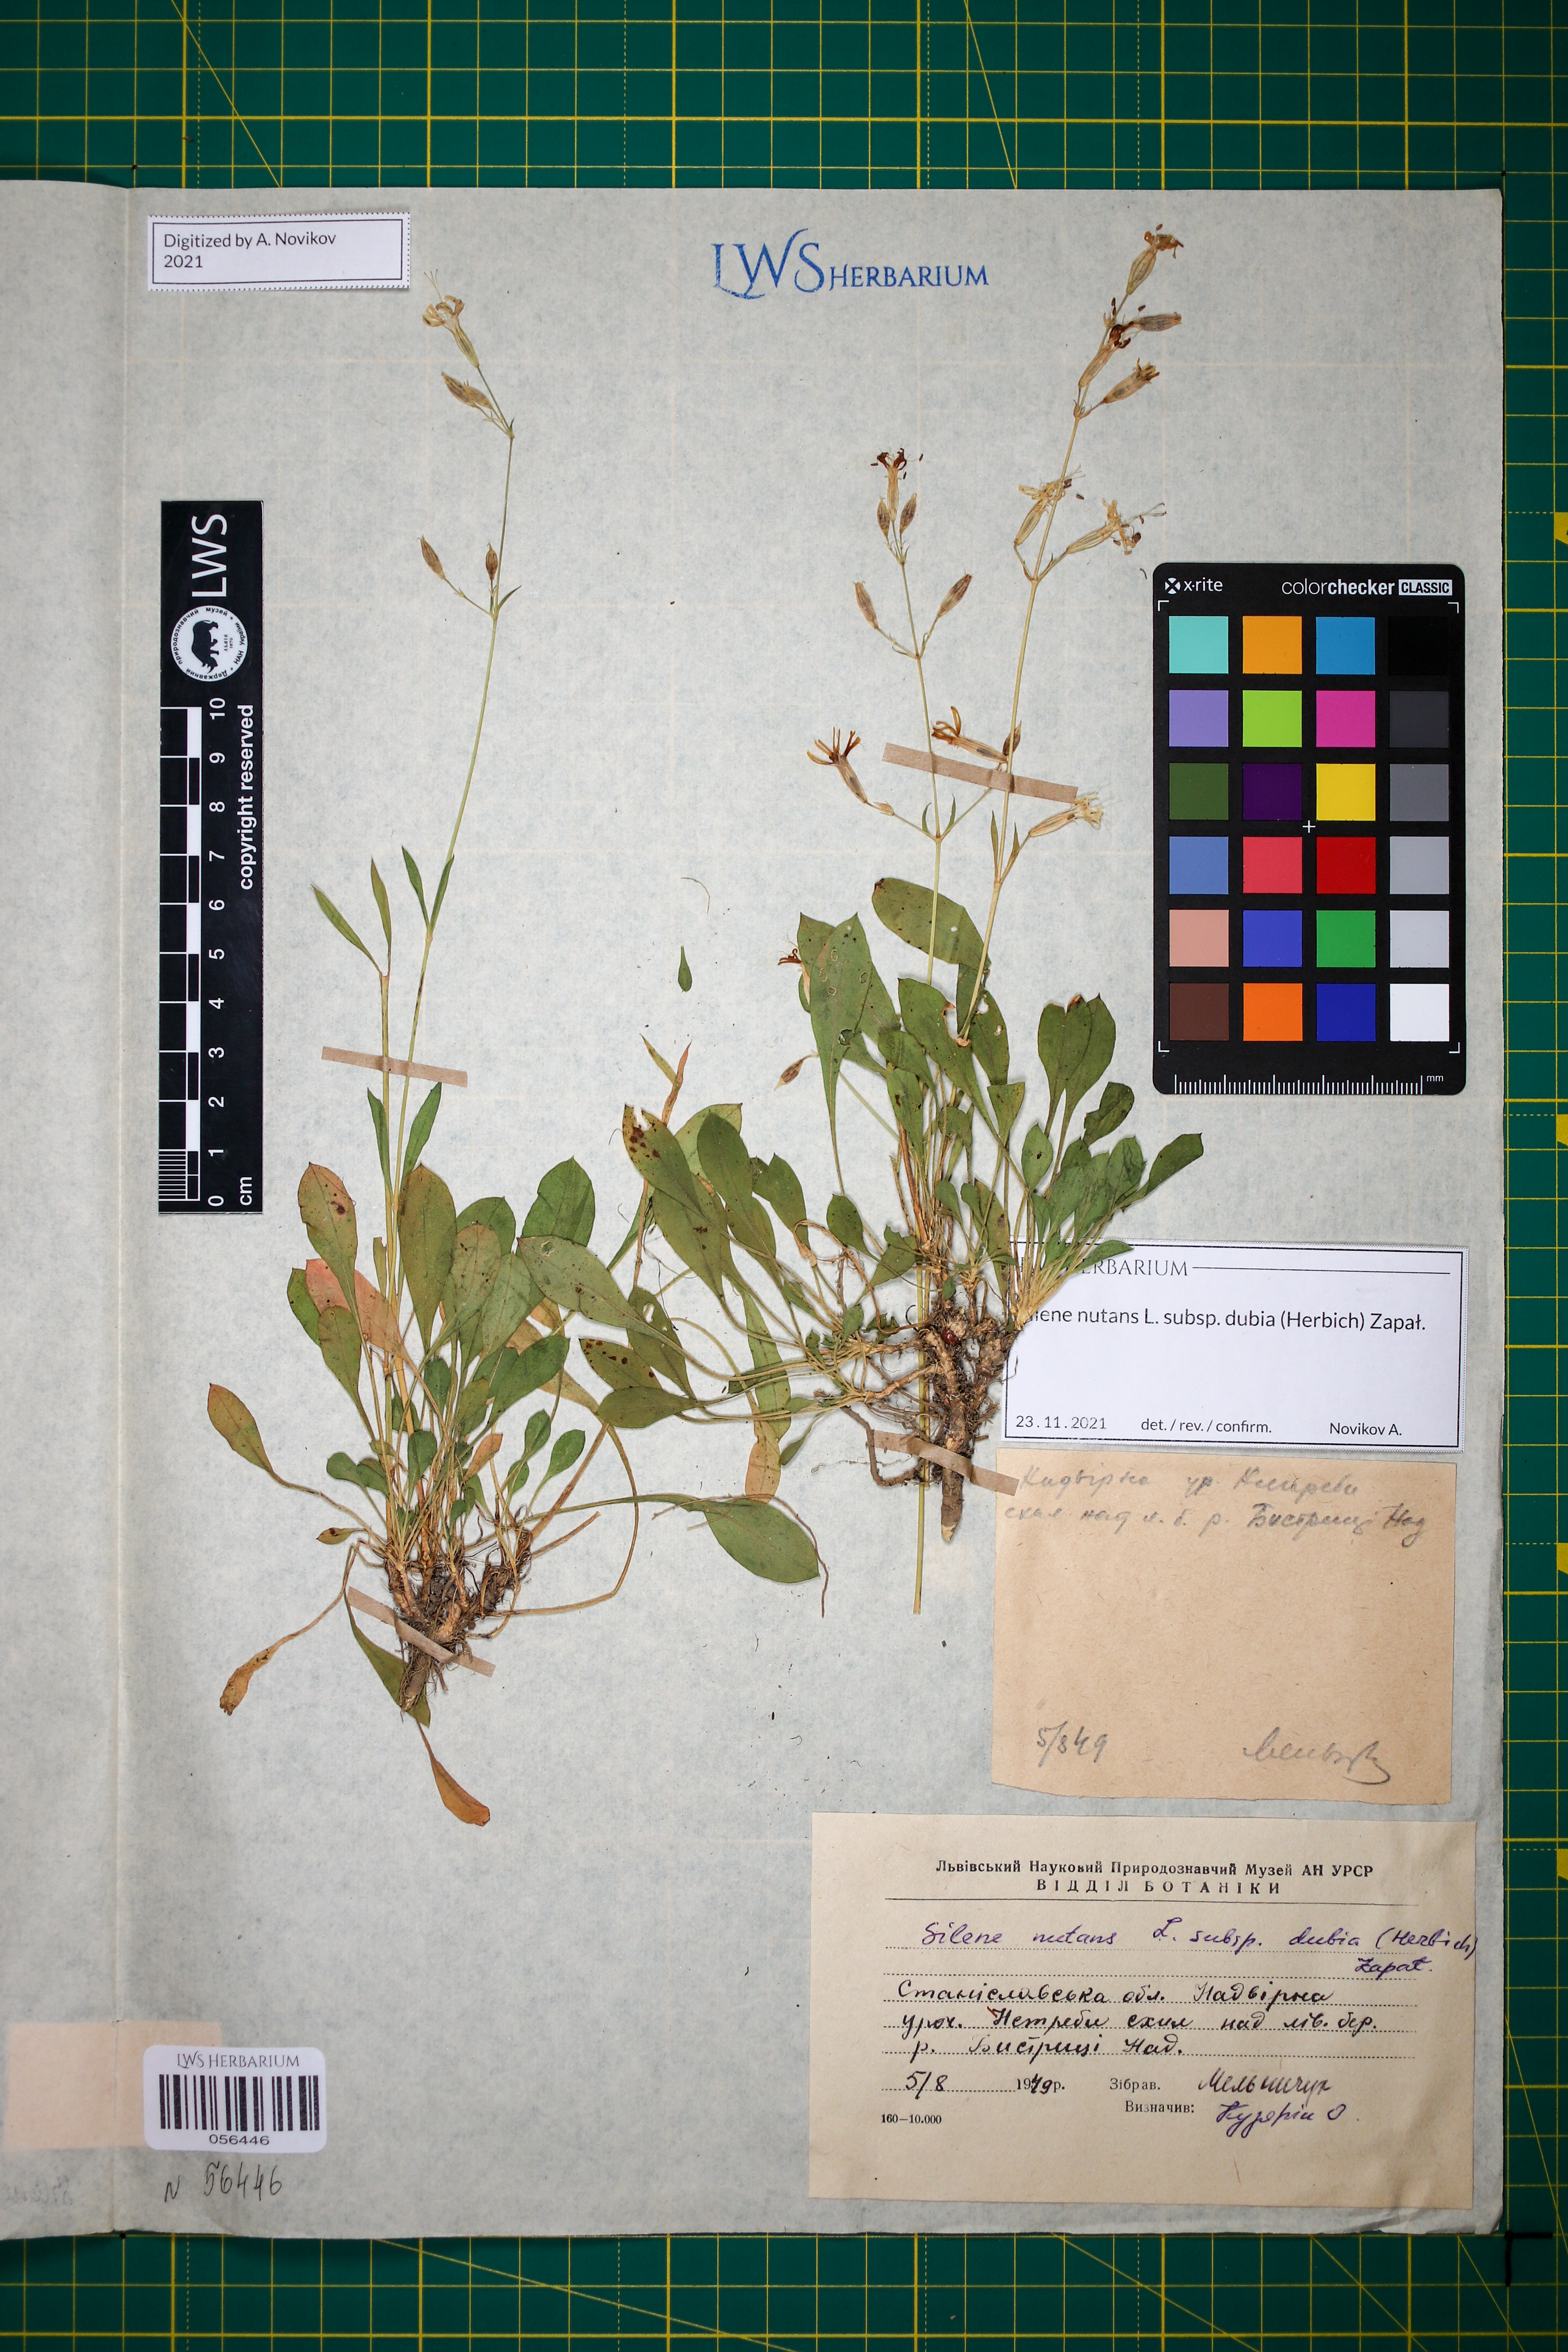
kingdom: Plantae
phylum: Tracheophyta
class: Magnoliopsida
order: Caryophyllales
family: Caryophyllaceae
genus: Silene
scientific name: Silene nutans
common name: Nottingham catchfly
